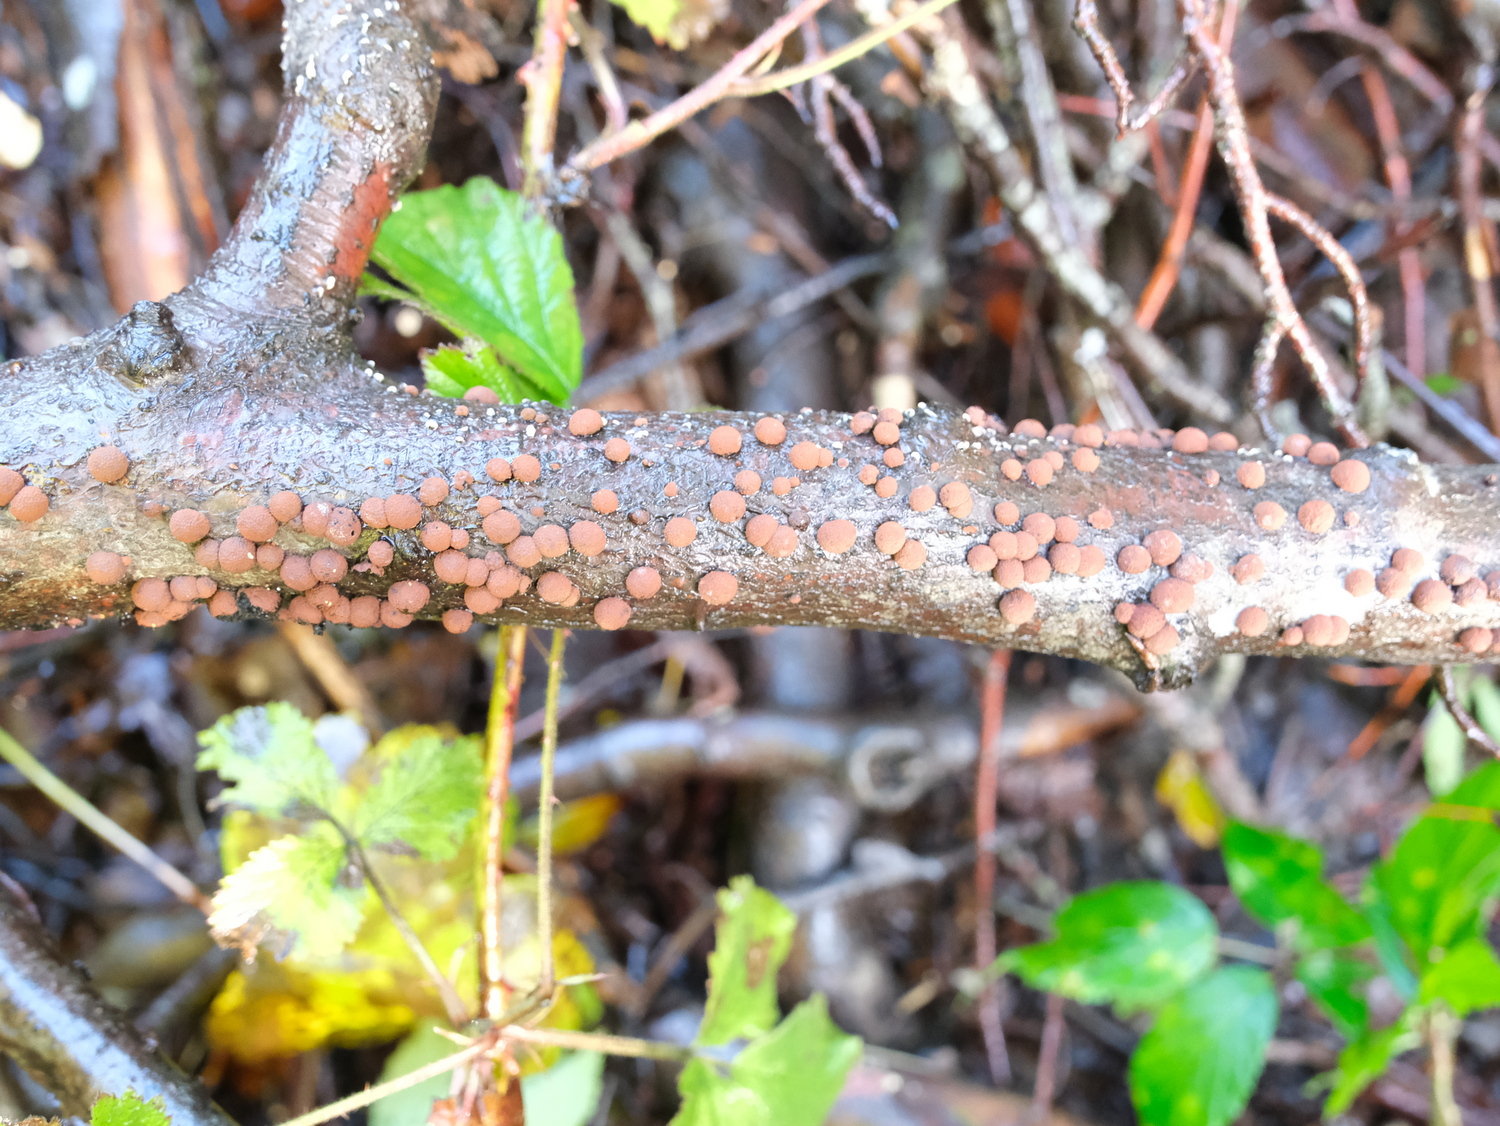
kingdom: Fungi
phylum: Ascomycota
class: Sordariomycetes
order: Xylariales
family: Hypoxylaceae
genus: Hypoxylon
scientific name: Hypoxylon fragiforme
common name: kuljordbær
